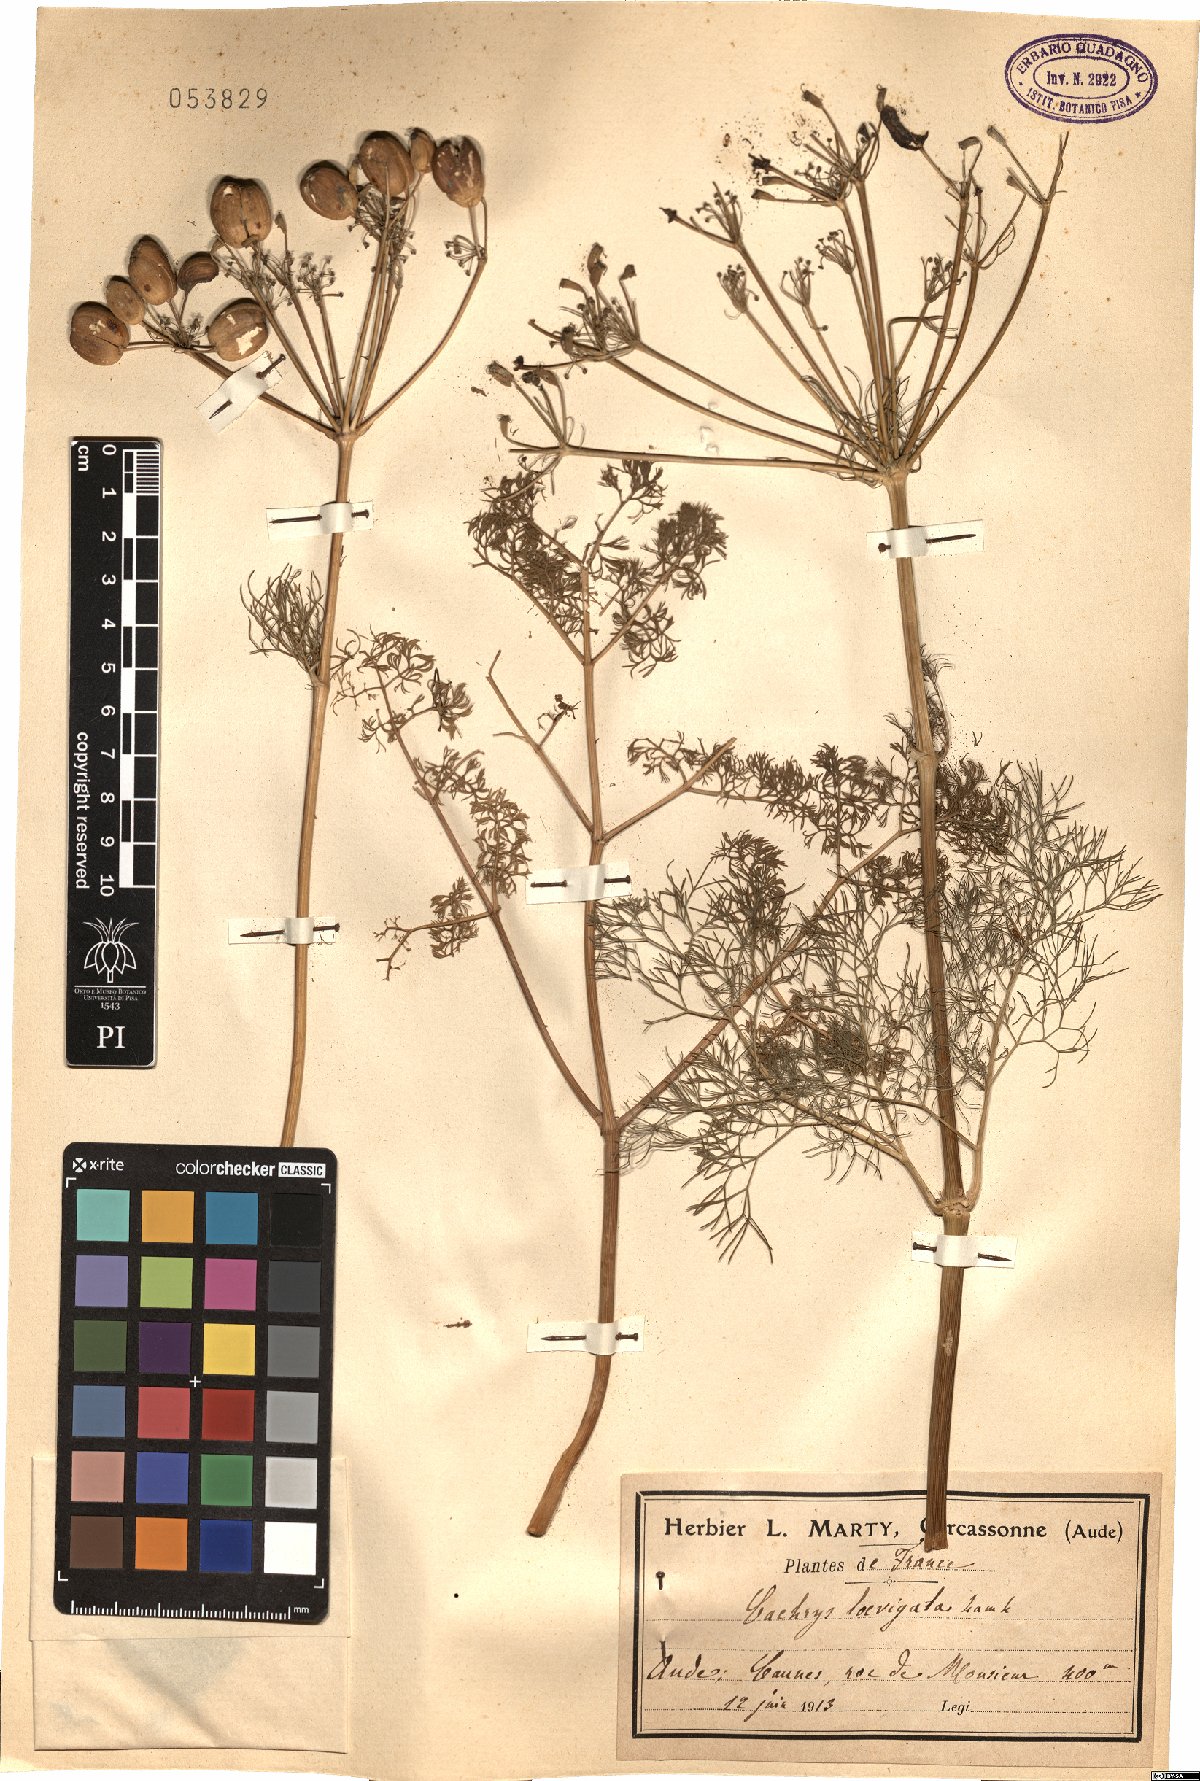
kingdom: Plantae
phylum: Tracheophyta
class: Magnoliopsida
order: Apiales
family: Apiaceae
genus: Prangos
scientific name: Prangos trifida
